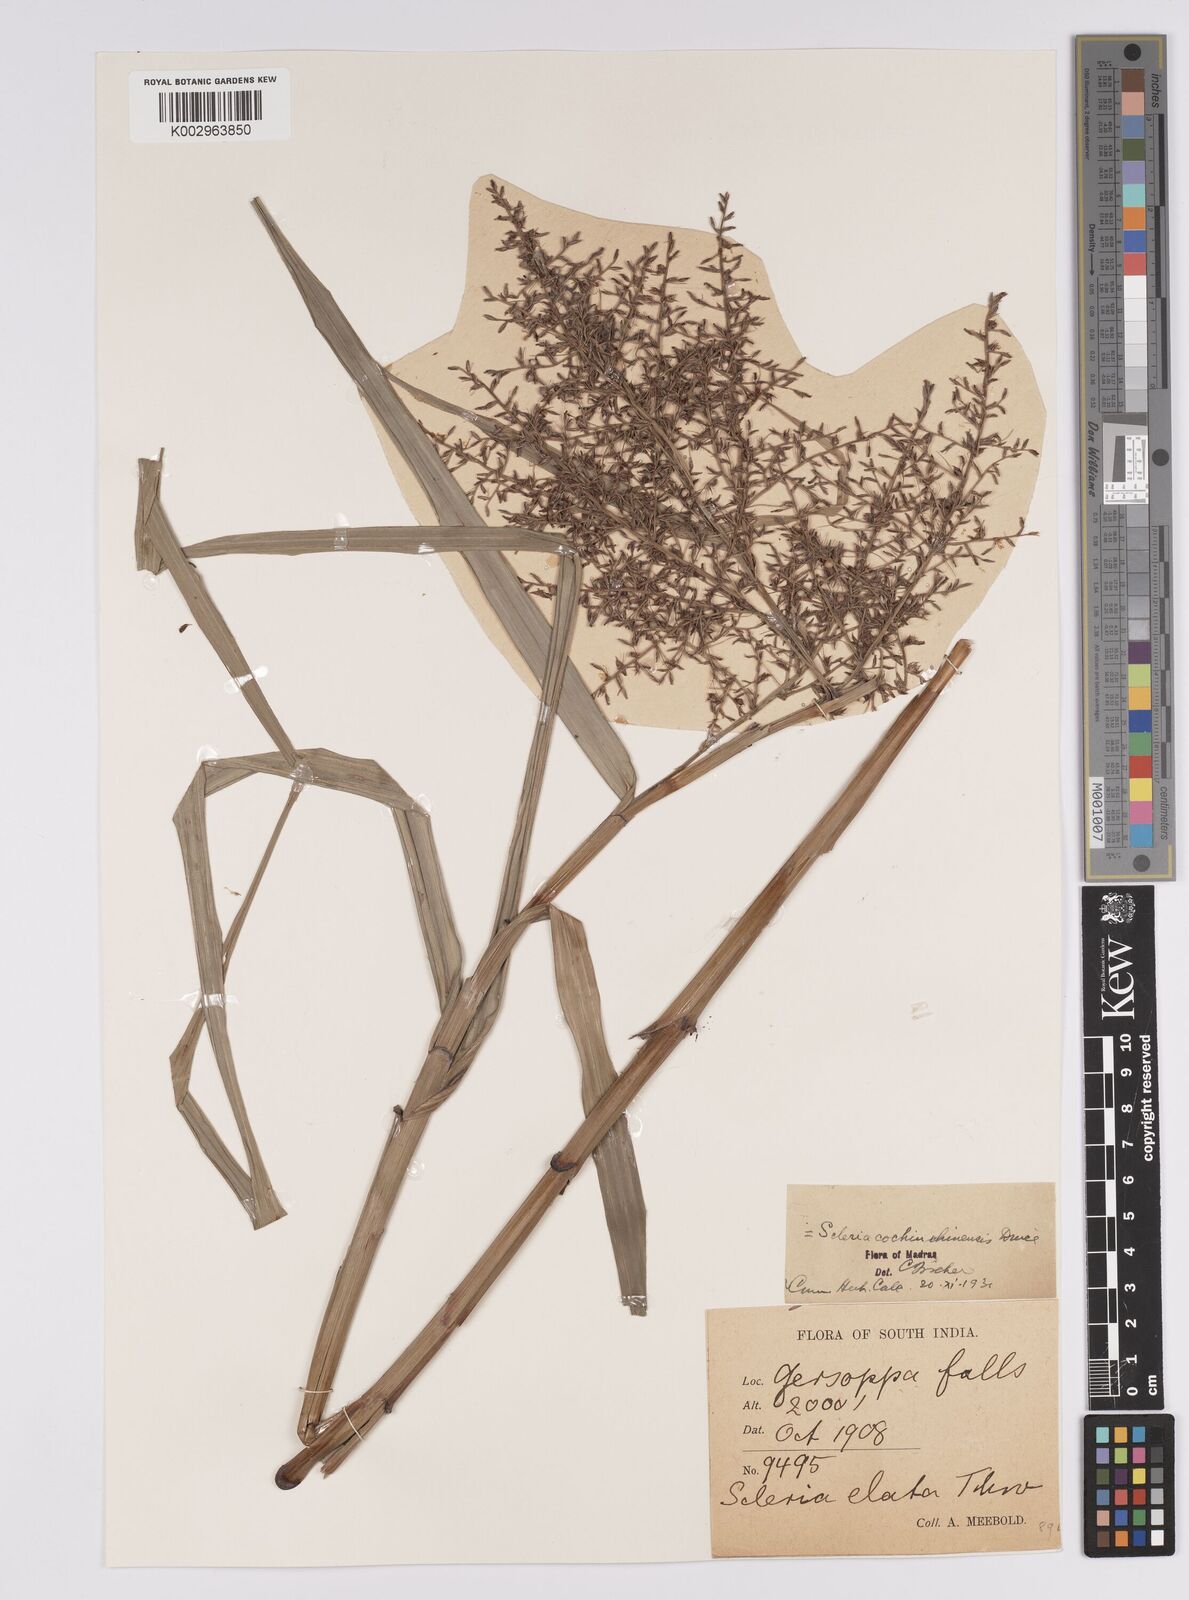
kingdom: Plantae
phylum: Tracheophyta
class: Liliopsida
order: Poales
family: Cyperaceae
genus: Scleria
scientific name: Scleria terrestris
